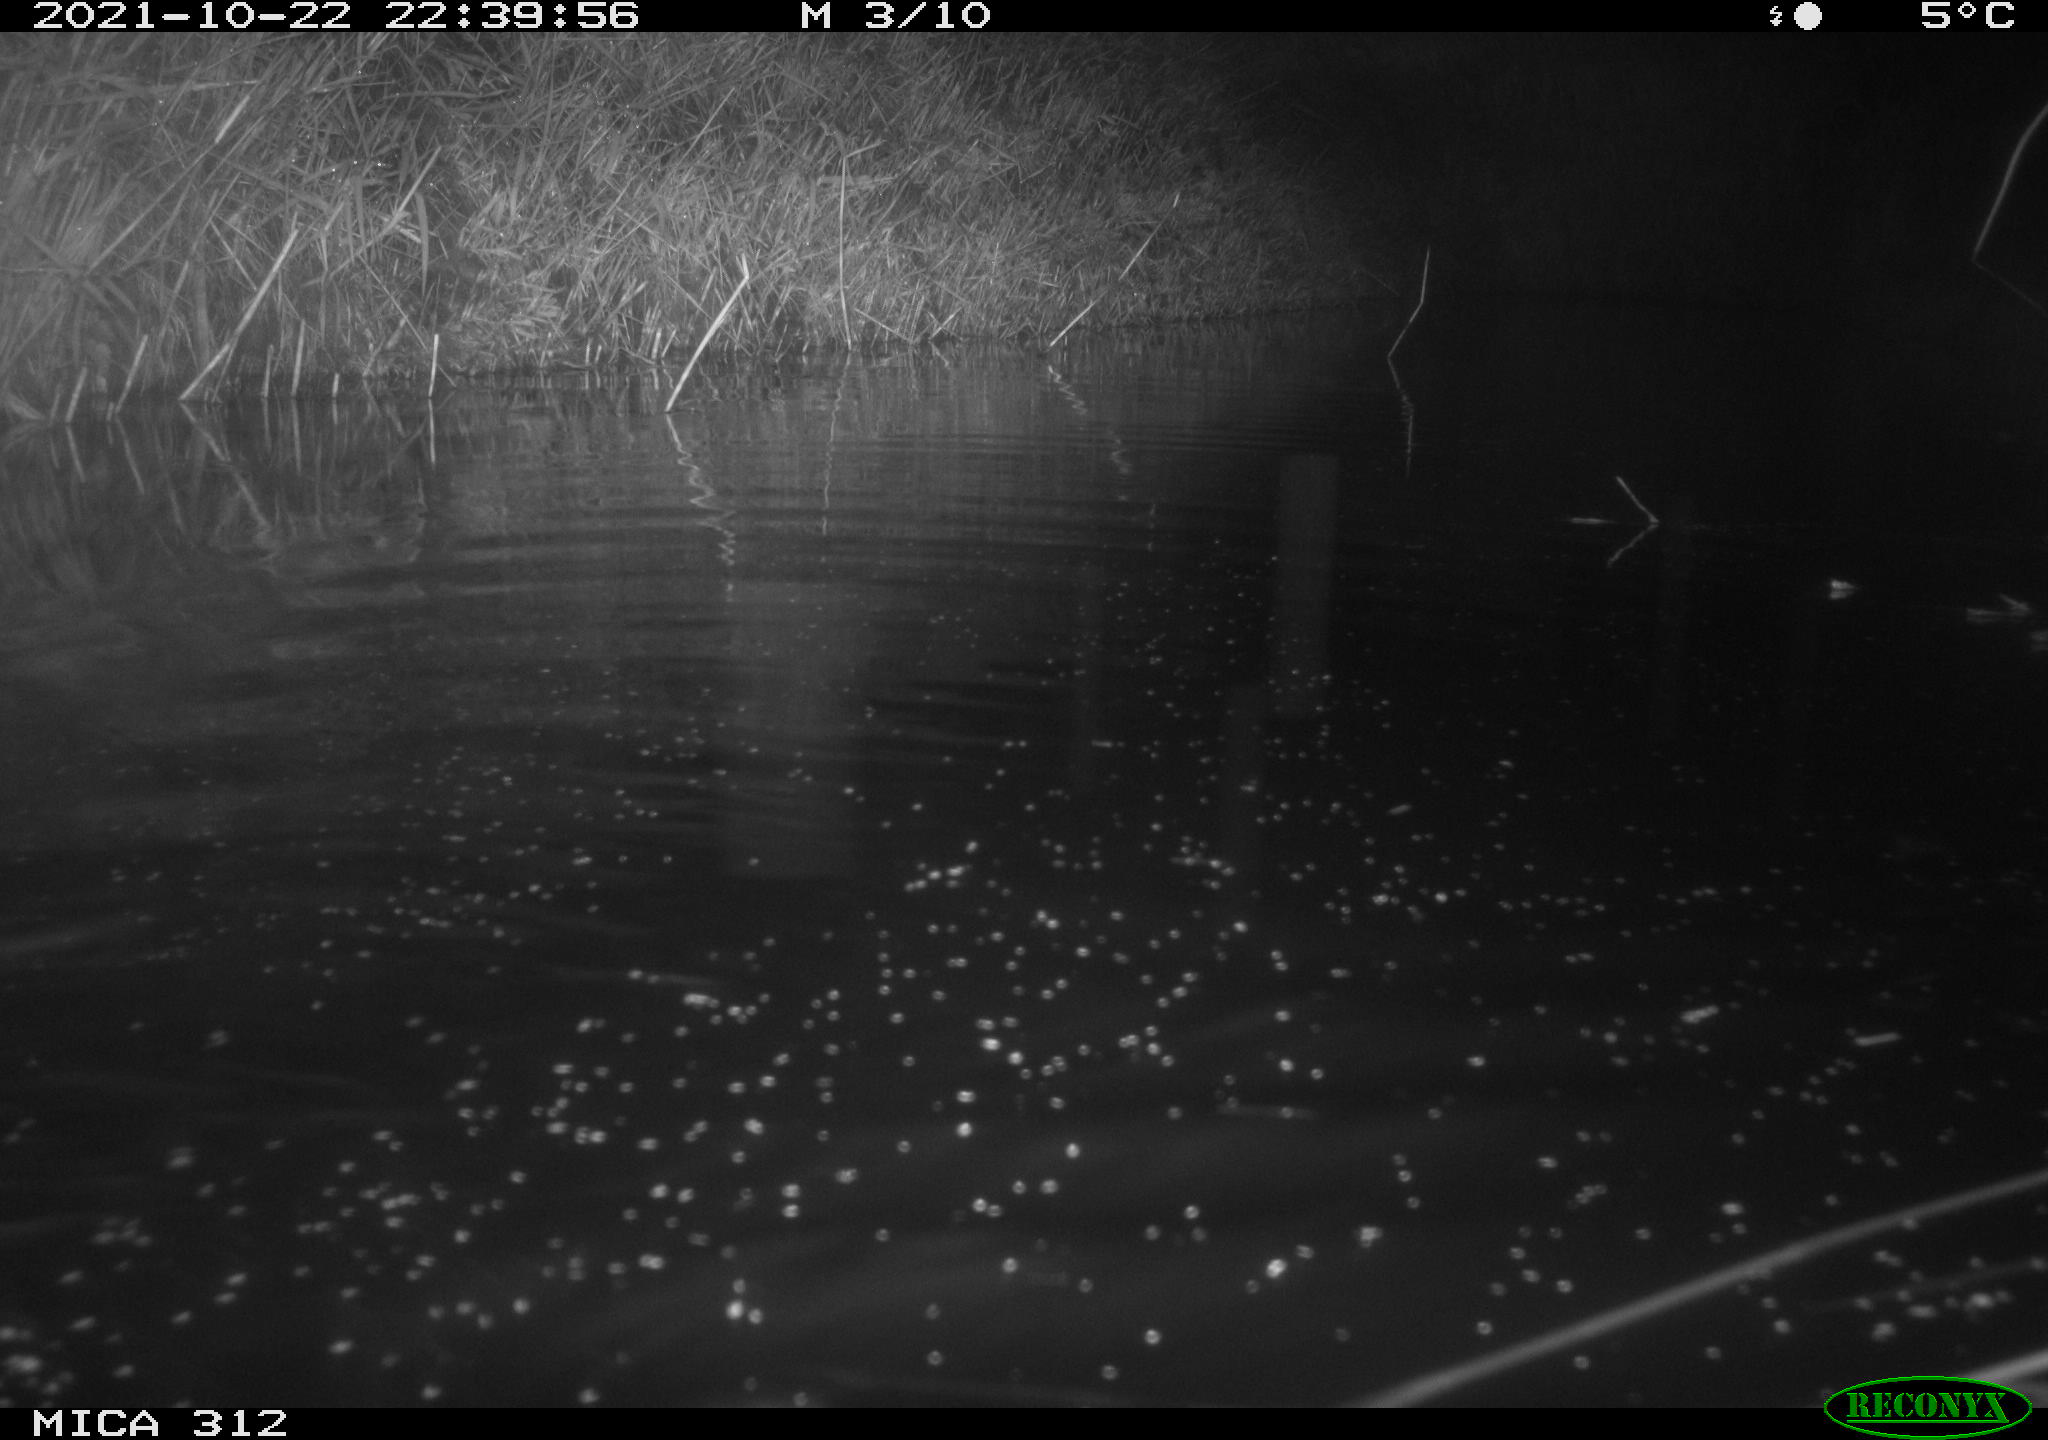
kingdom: Animalia
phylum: Chordata
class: Mammalia
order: Rodentia
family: Muridae
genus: Rattus
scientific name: Rattus norvegicus
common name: Brown rat
